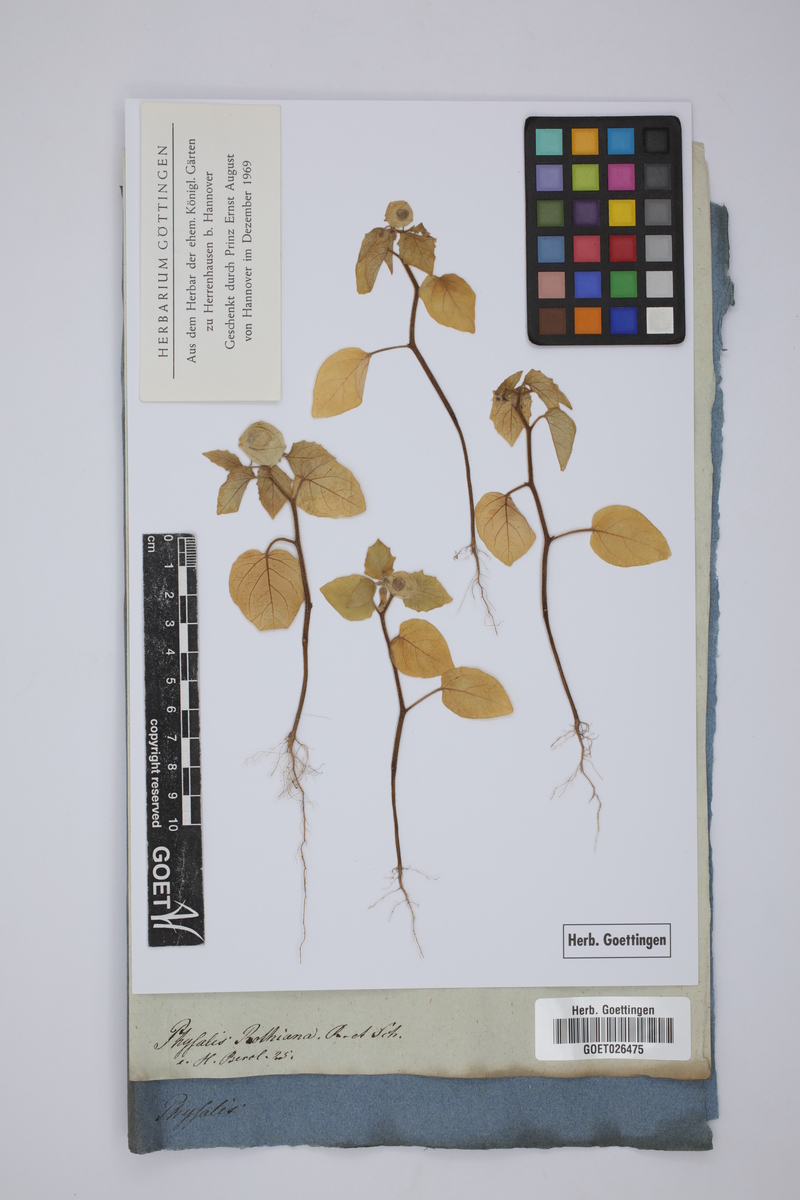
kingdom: Plantae
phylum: Tracheophyta
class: Magnoliopsida
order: Solanales
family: Solanaceae
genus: Physalis
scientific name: Physalis lagascae
